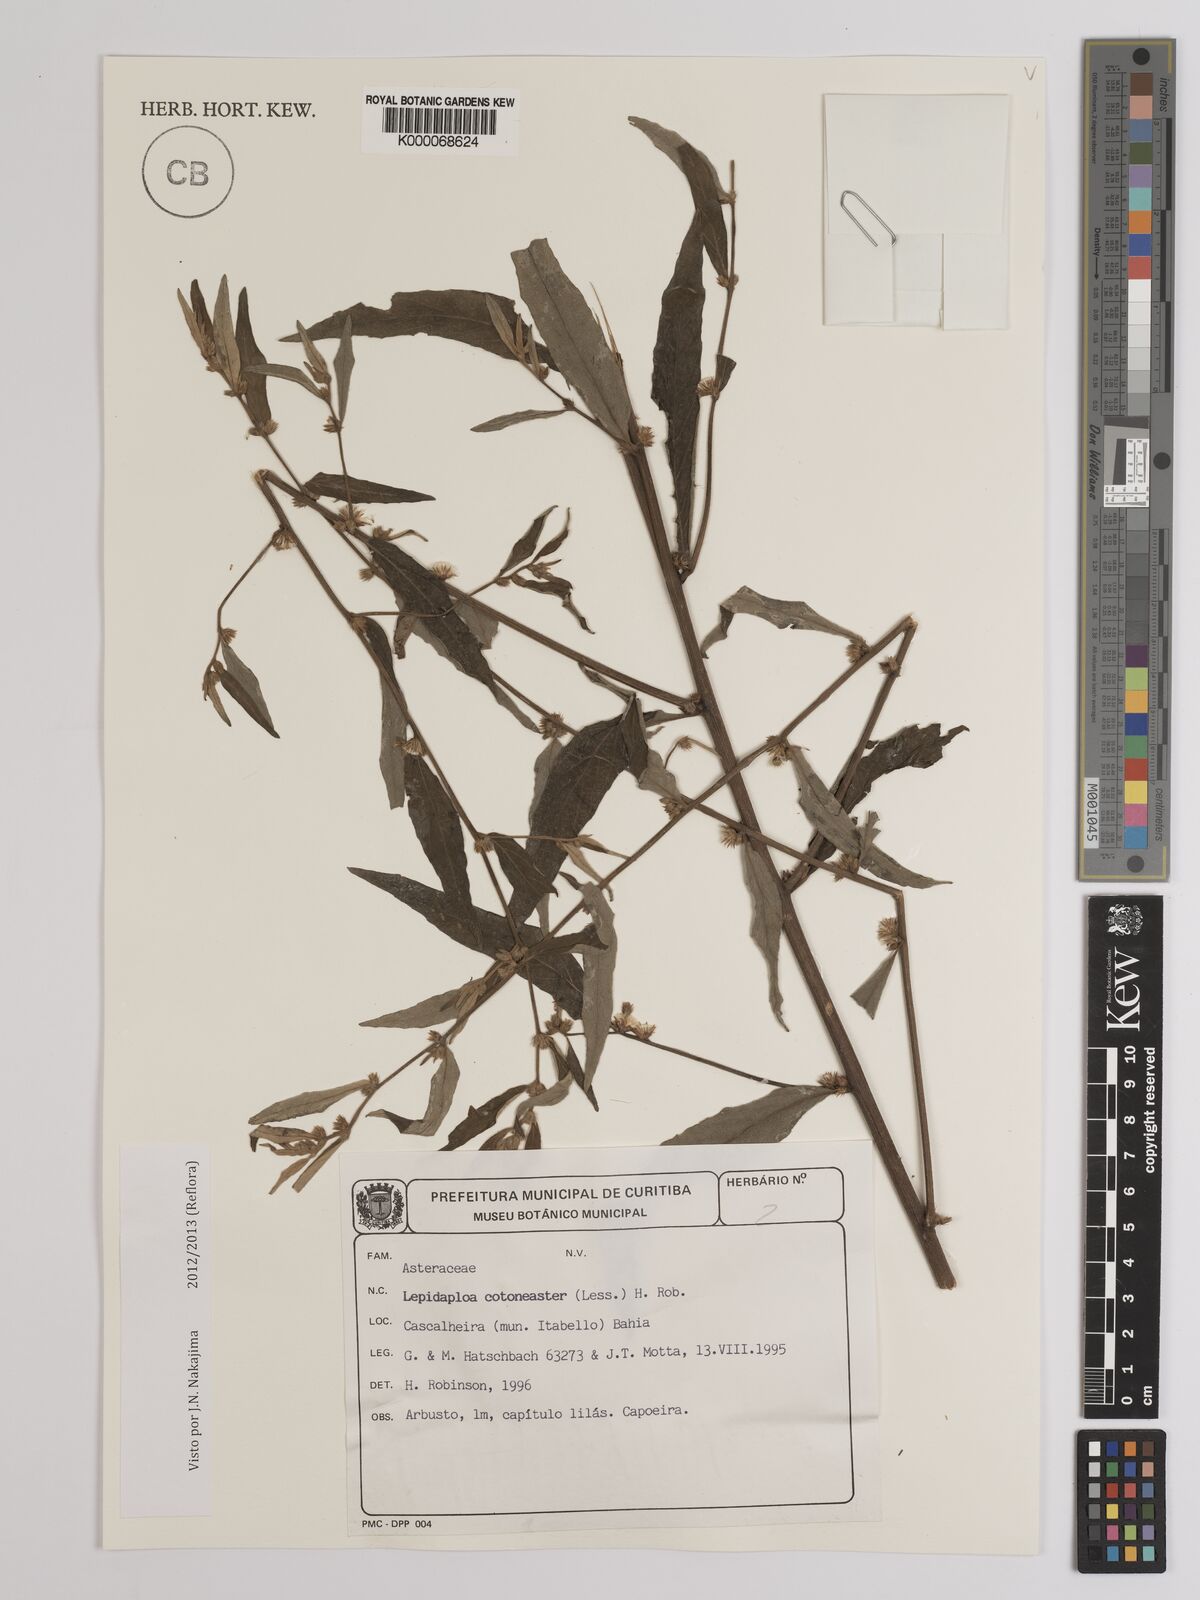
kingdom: Plantae
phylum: Tracheophyta
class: Magnoliopsida
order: Asterales
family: Asteraceae
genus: Lepidaploa
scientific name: Lepidaploa cotoneaster
